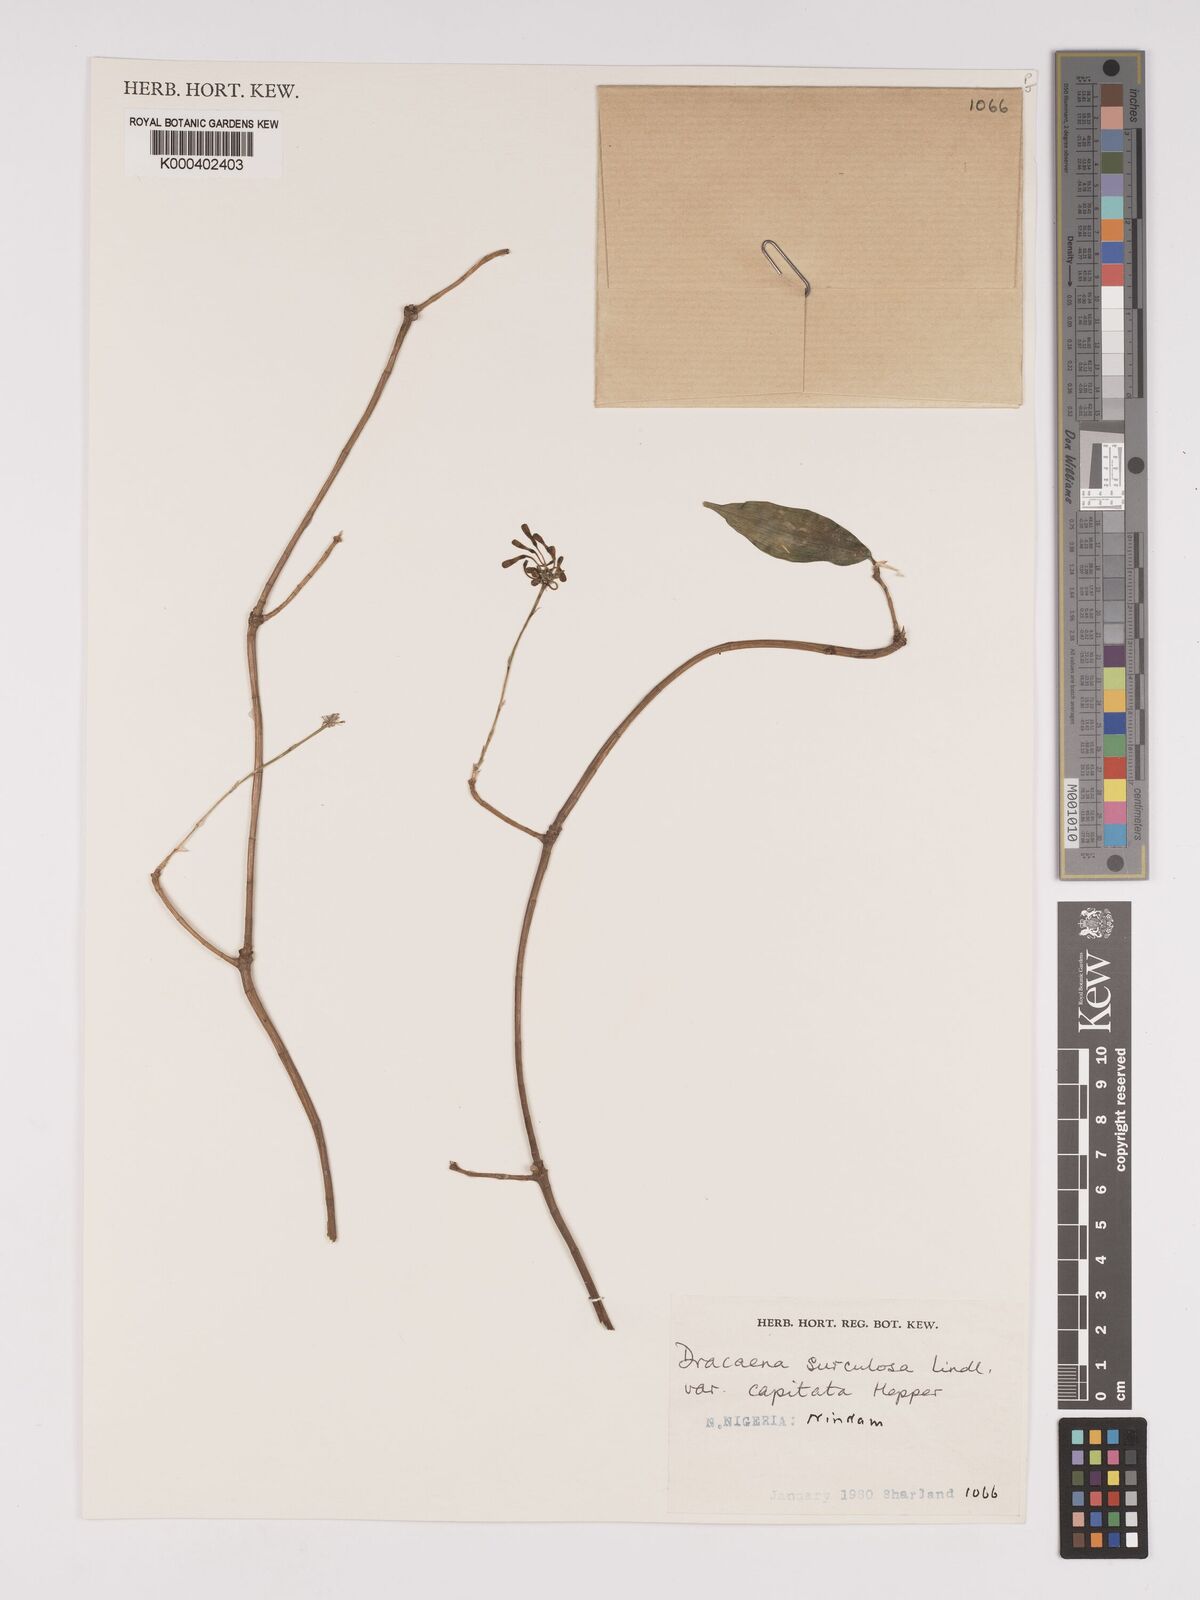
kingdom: Plantae
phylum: Tracheophyta
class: Liliopsida
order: Asparagales
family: Asparagaceae
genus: Dracaena
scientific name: Dracaena surculosa
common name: Spotted dracaena
